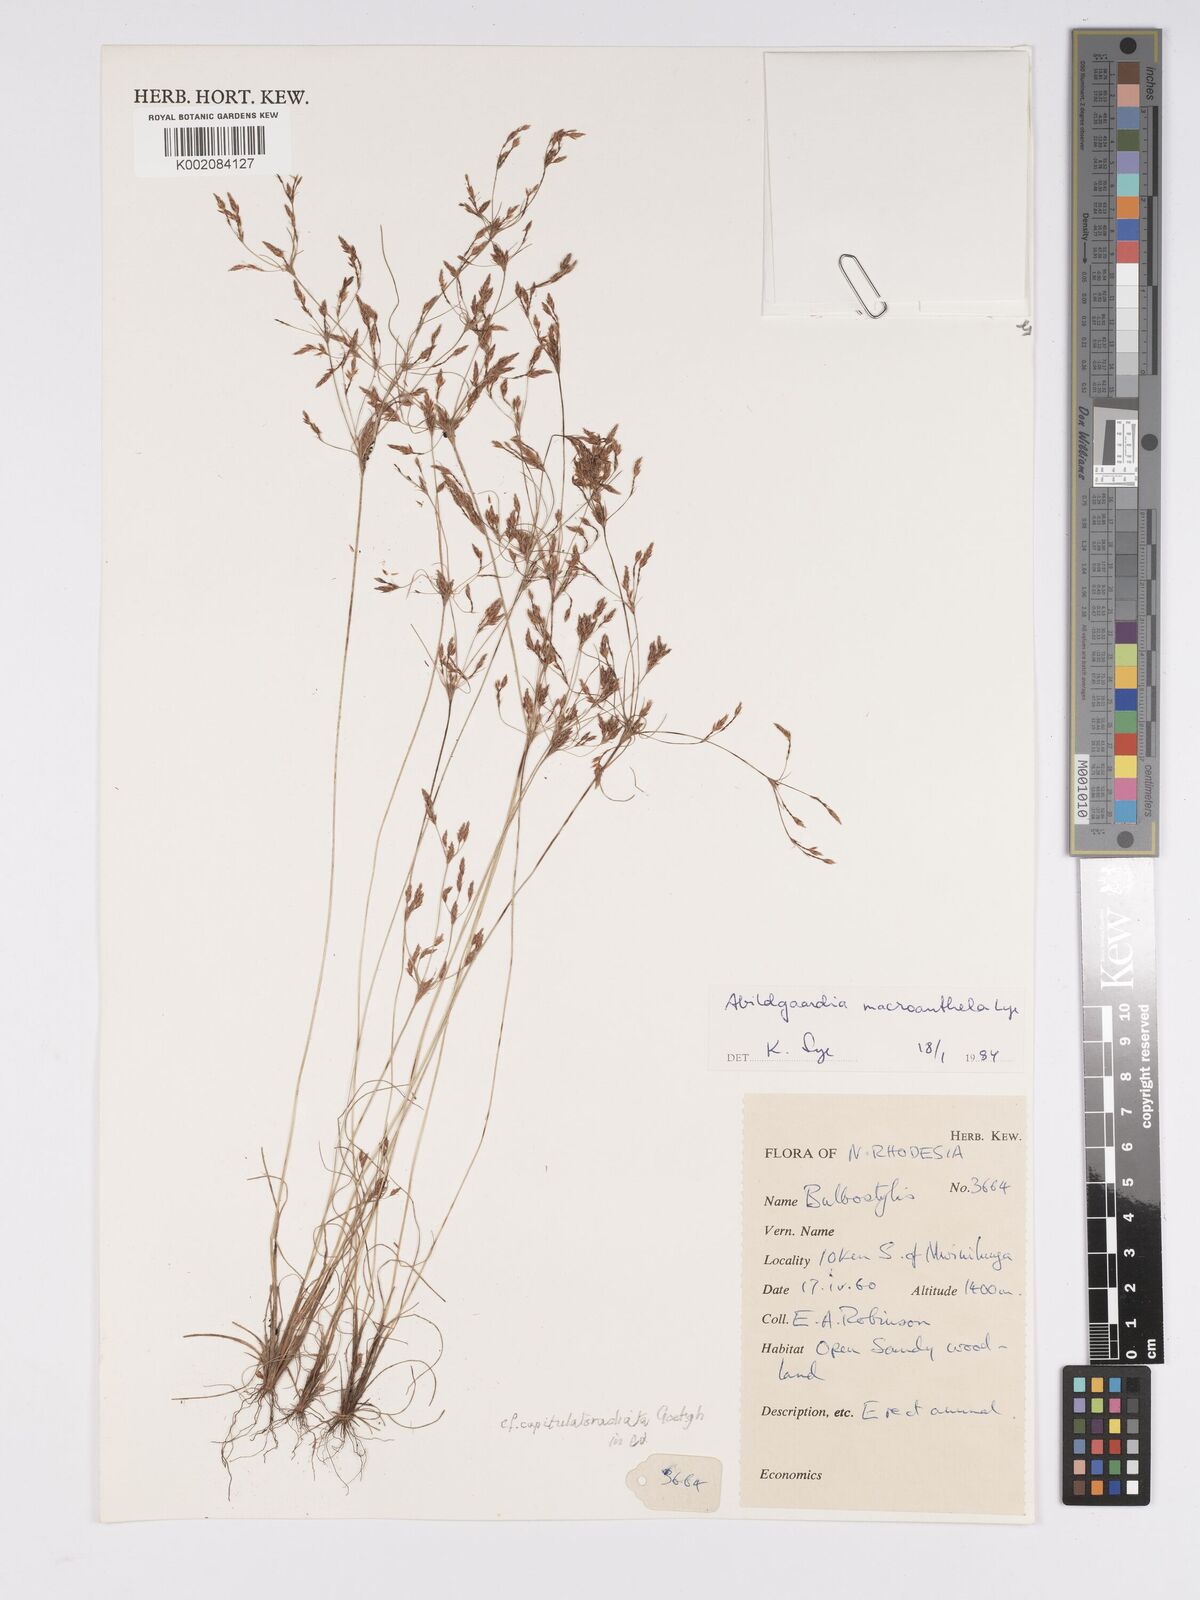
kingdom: Plantae
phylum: Tracheophyta
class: Liliopsida
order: Poales
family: Cyperaceae
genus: Bulbostylis
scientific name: Bulbostylis
